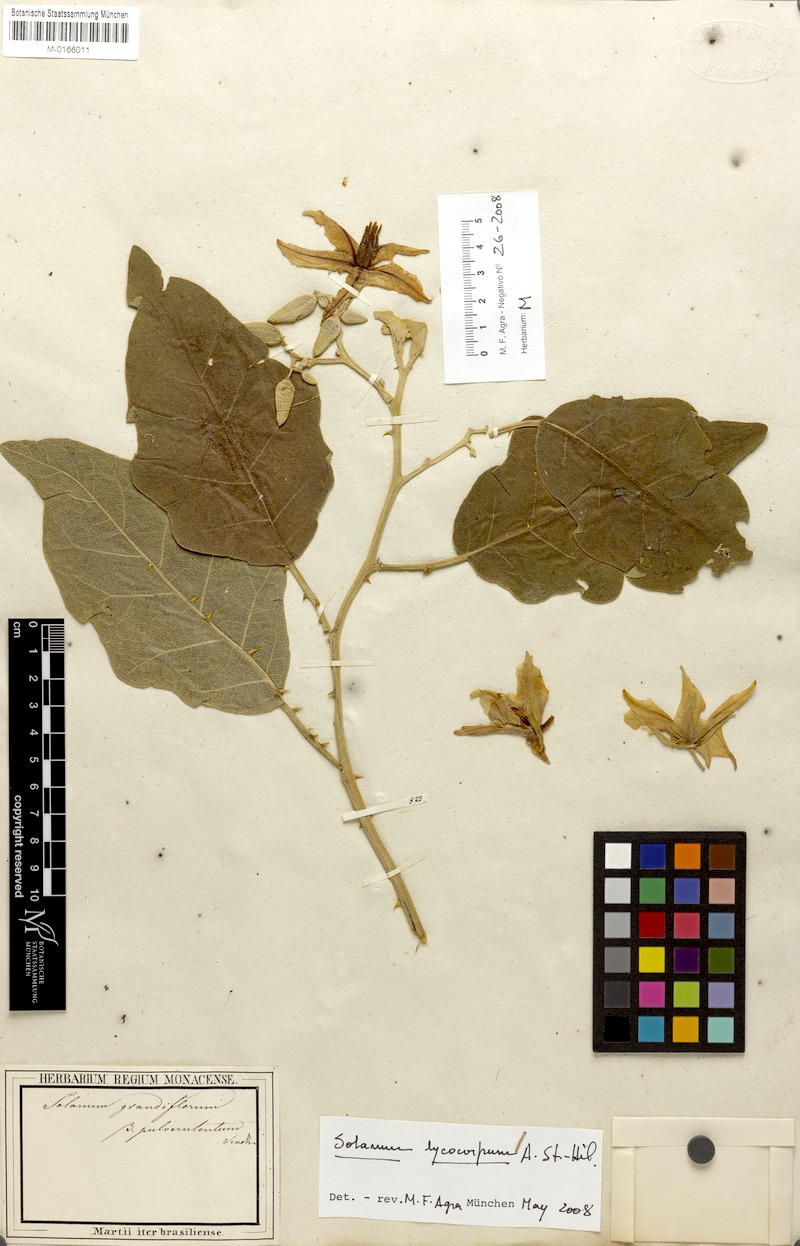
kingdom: Plantae
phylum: Tracheophyta
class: Magnoliopsida
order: Solanales
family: Solanaceae
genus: Solanum
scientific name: Solanum lycocarpum
